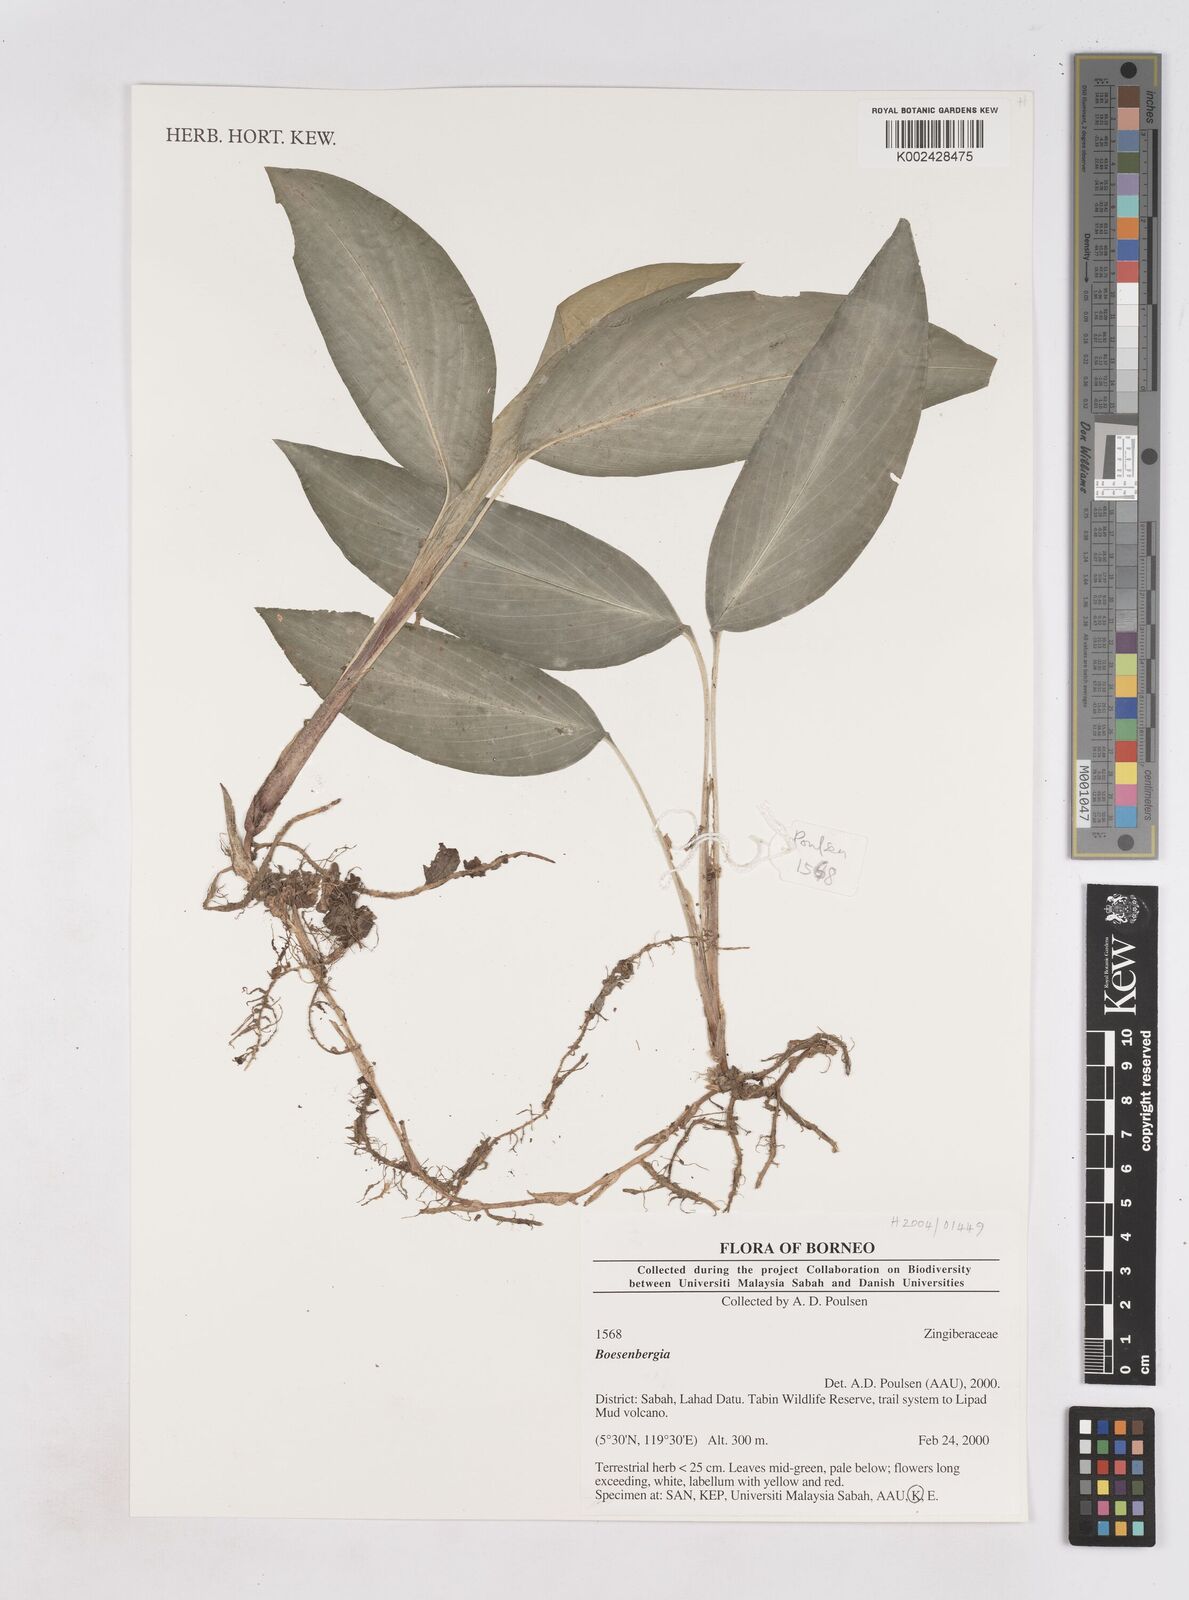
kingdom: Plantae
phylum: Tracheophyta
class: Liliopsida
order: Zingiberales
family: Zingiberaceae
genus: Boesenbergia
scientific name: Boesenbergia
